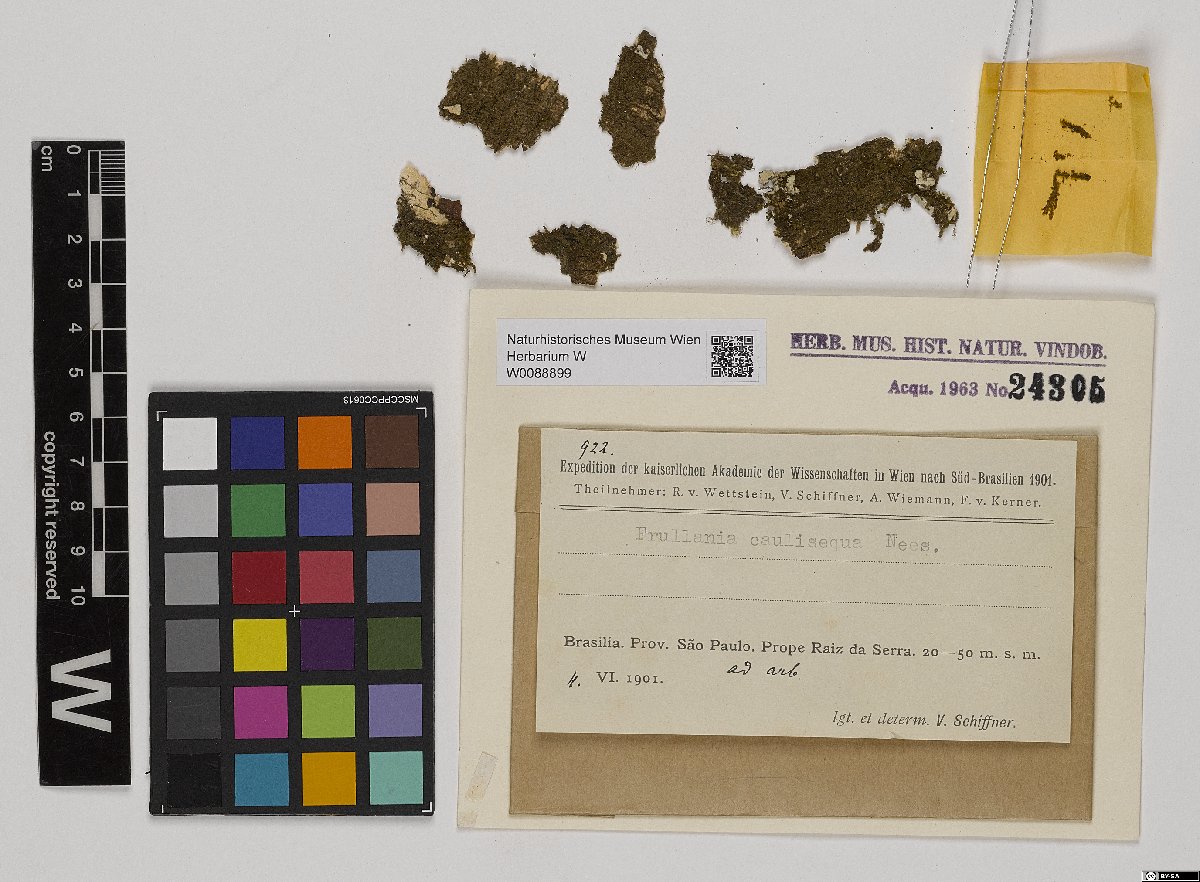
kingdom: Plantae
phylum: Marchantiophyta
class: Jungermanniopsida
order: Porellales
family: Frullaniaceae
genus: Frullania
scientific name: Frullania caulisequa
